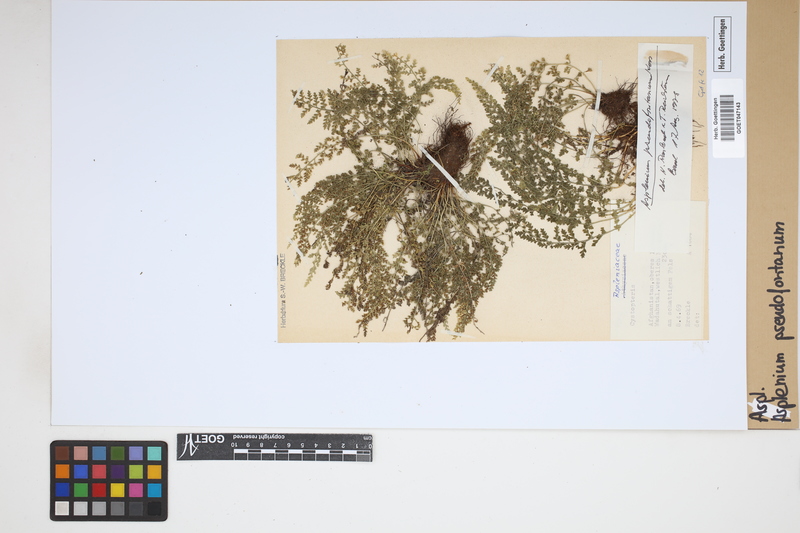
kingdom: Plantae
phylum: Tracheophyta
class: Polypodiopsida
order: Polypodiales
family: Aspleniaceae
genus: Asplenium
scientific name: Asplenium fontanum
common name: Fountain spleenwort
